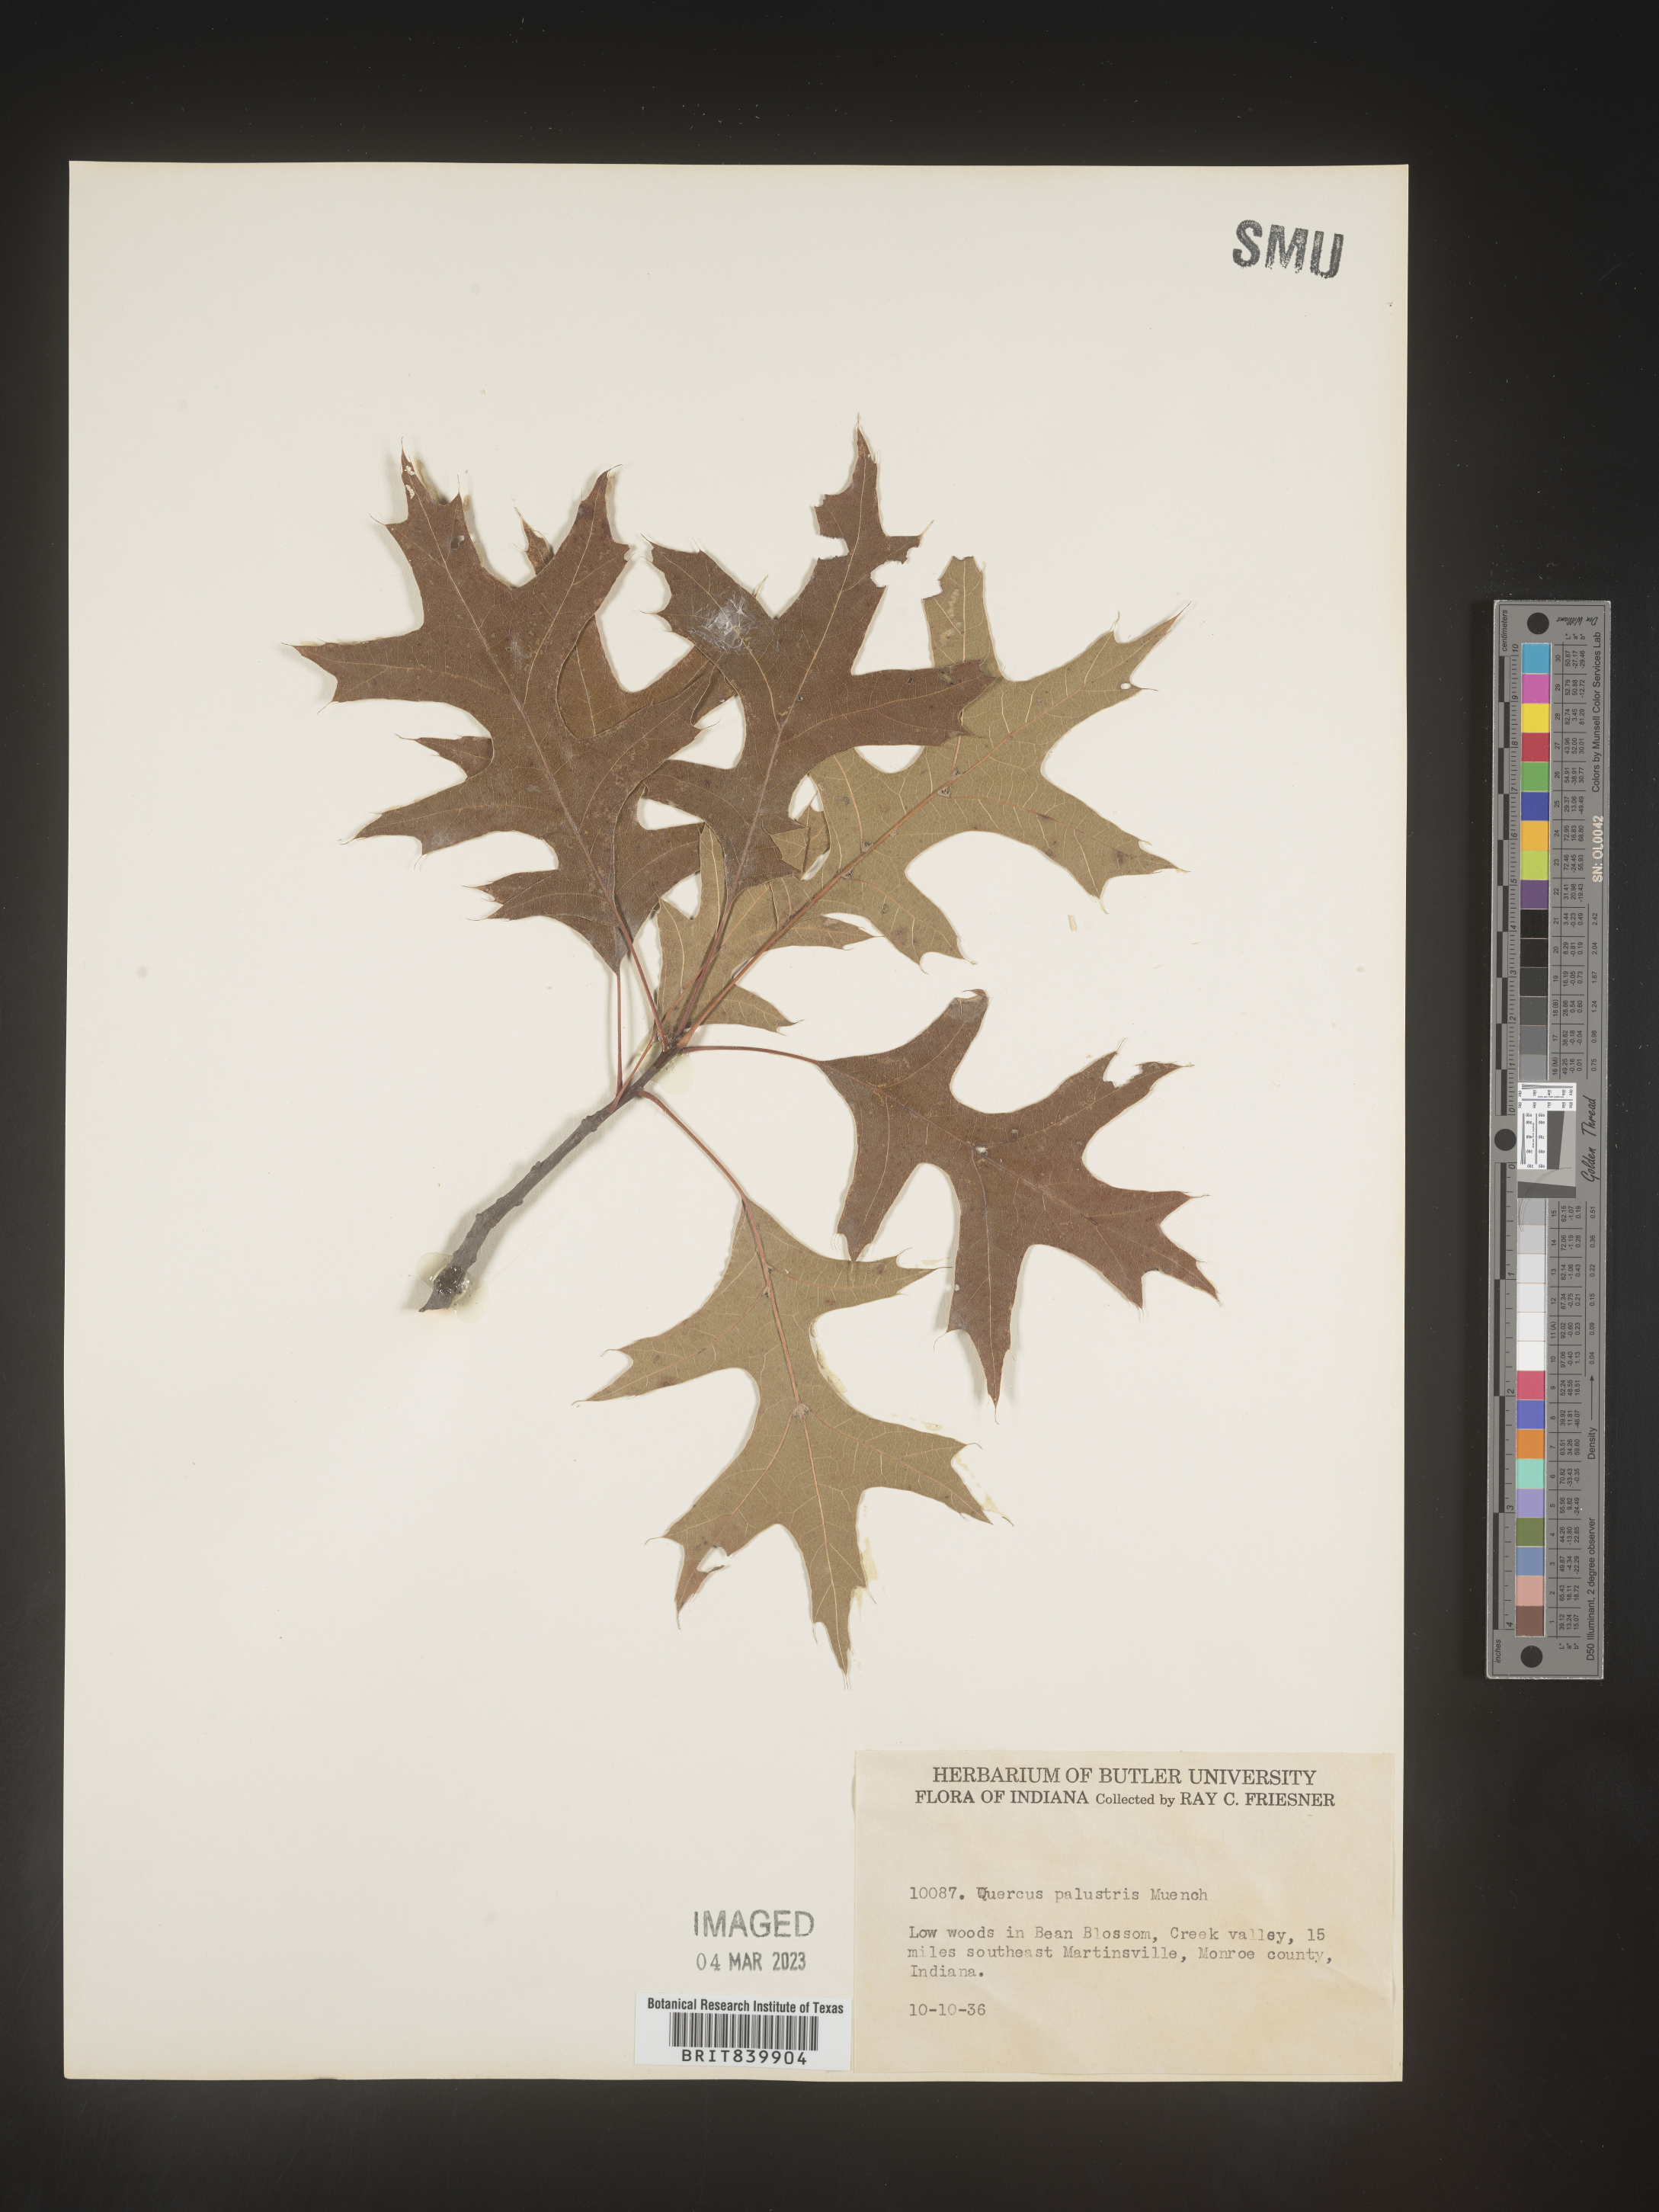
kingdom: Plantae
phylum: Tracheophyta
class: Magnoliopsida
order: Fagales
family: Fagaceae
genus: Quercus
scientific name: Quercus palustris
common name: Pin oak
